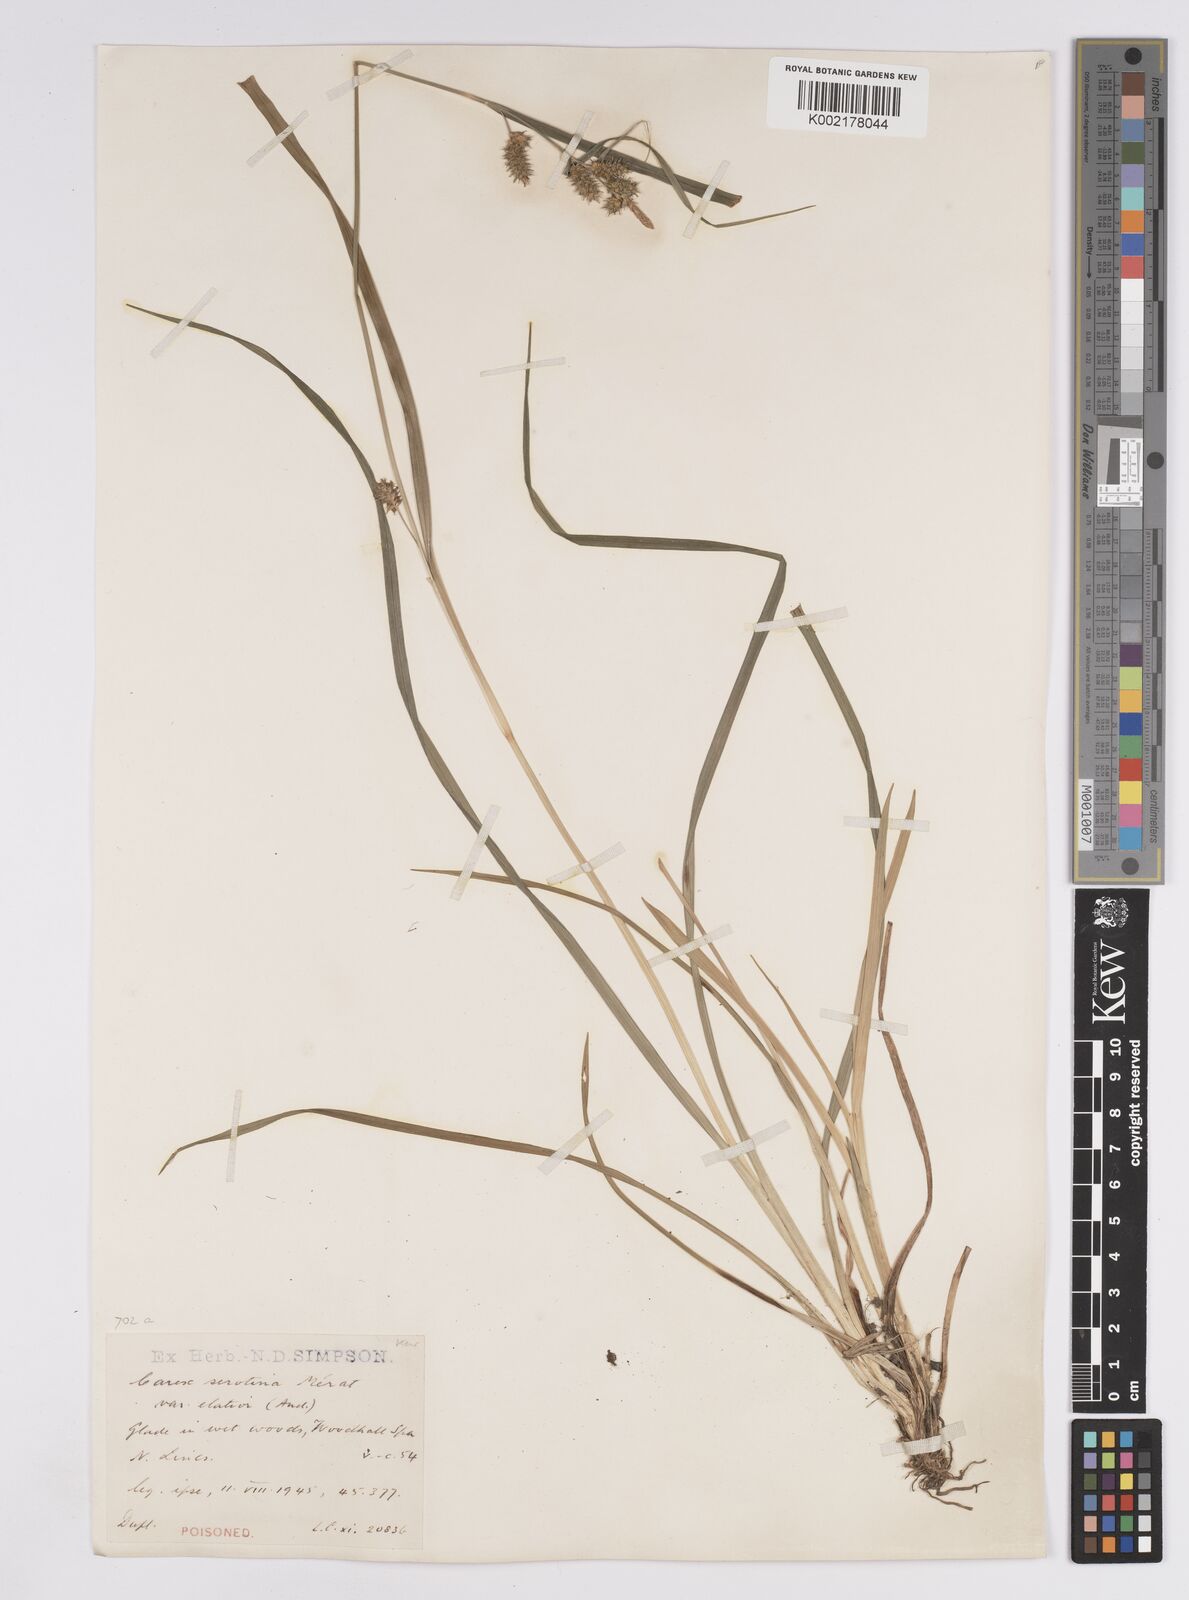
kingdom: Plantae
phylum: Tracheophyta
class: Liliopsida
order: Poales
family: Cyperaceae
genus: Carex
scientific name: Carex demissa
